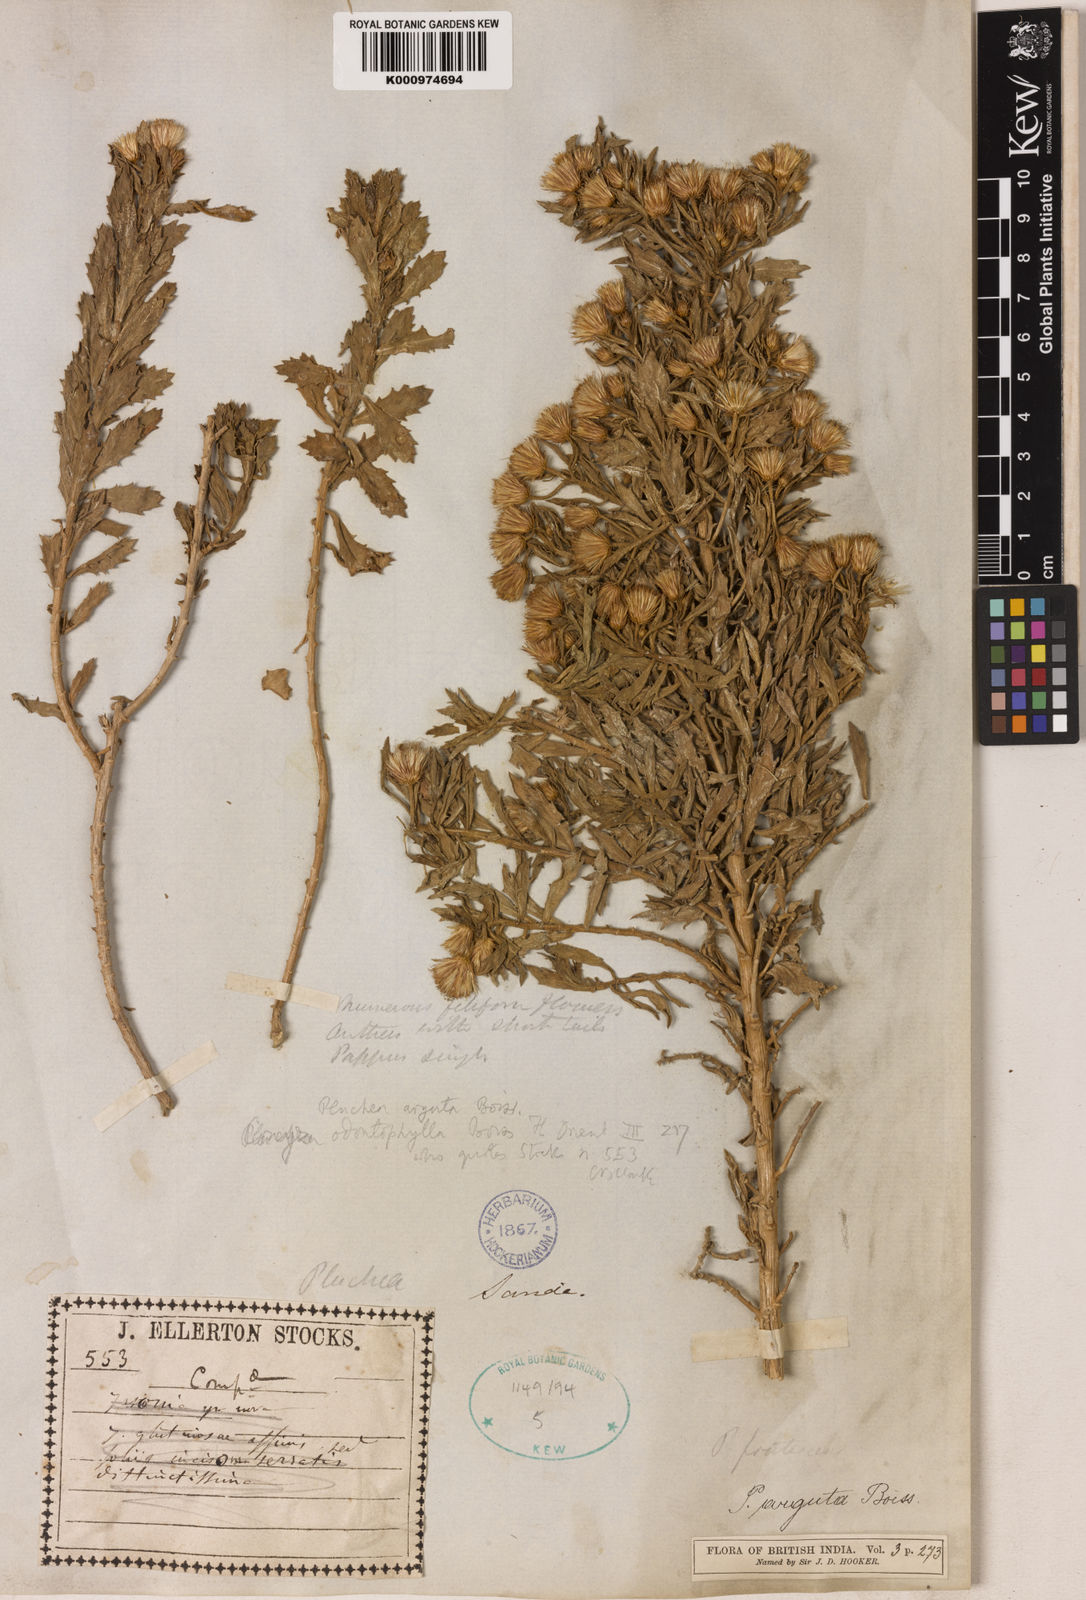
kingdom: Plantae
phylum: Tracheophyta
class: Magnoliopsida
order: Asterales
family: Asteraceae
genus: Pluchea
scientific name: Pluchea arguta
